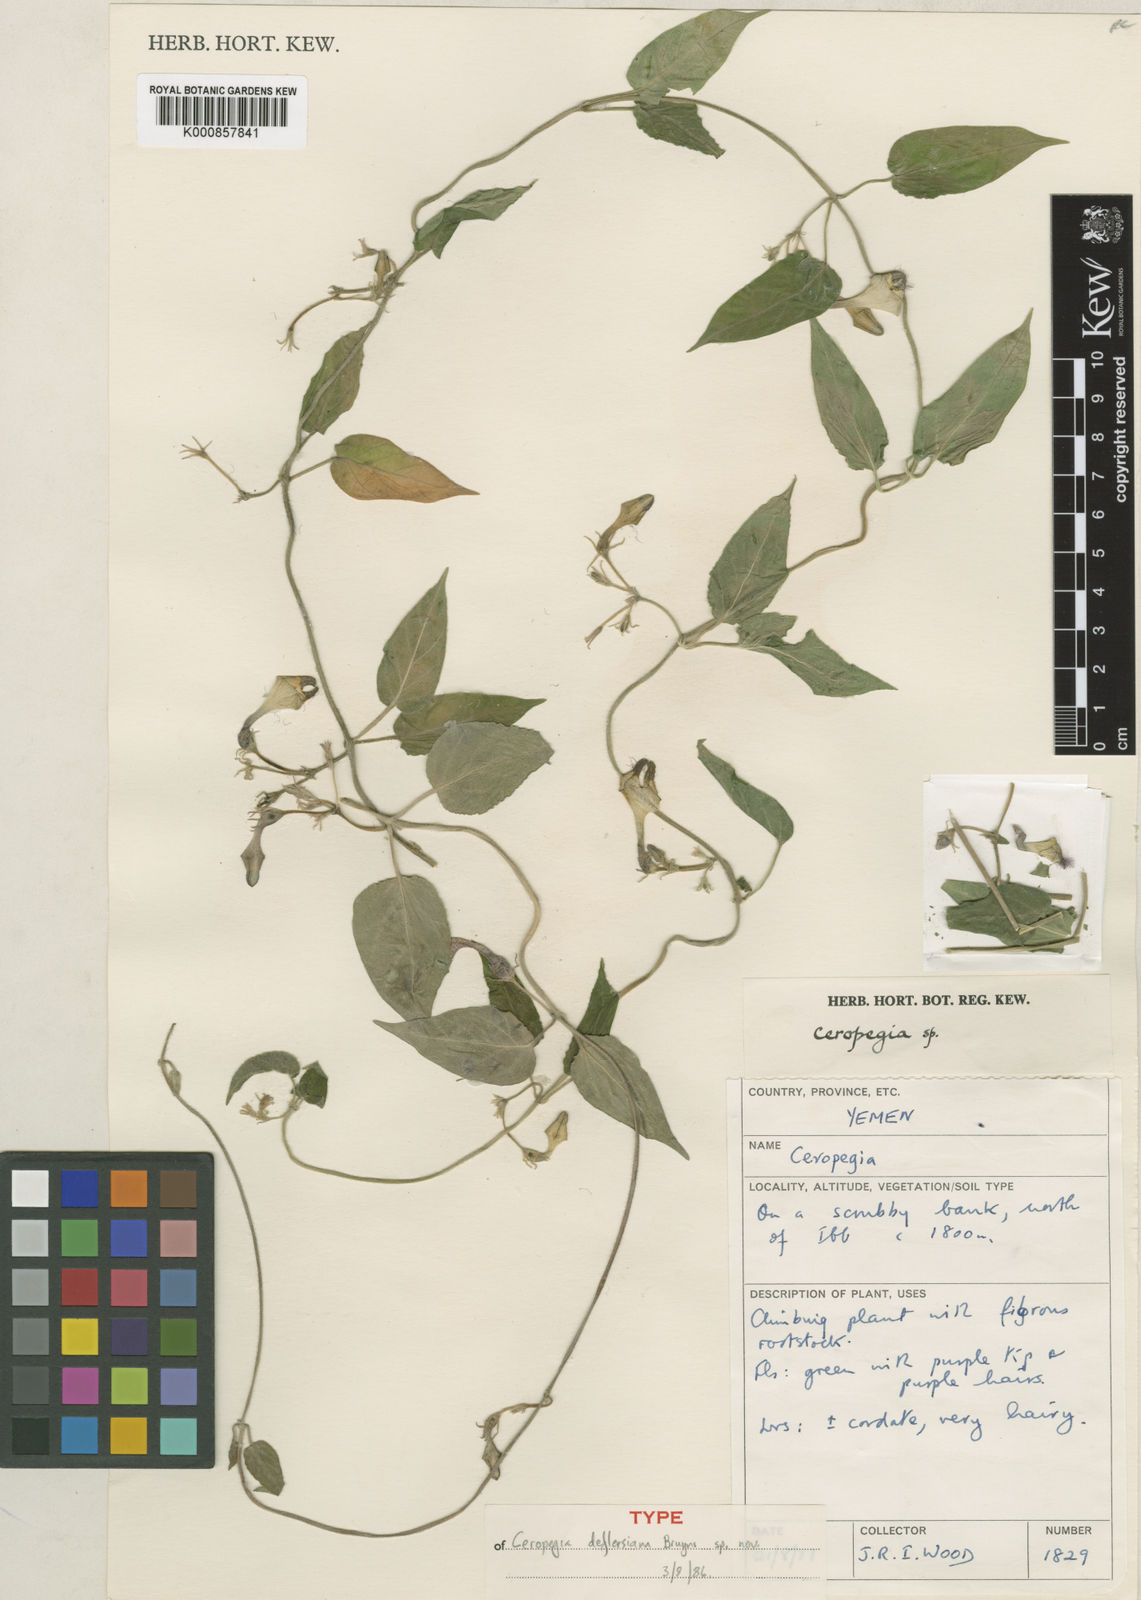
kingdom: Plantae
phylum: Tracheophyta
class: Magnoliopsida
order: Gentianales
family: Apocynaceae
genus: Ceropegia
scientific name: Ceropegia foliosa
